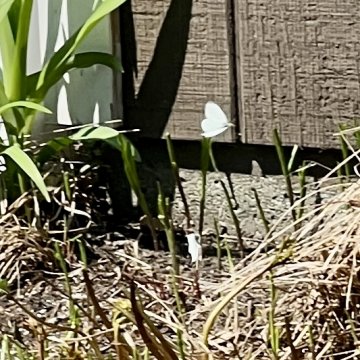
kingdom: Animalia
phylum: Arthropoda
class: Insecta
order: Lepidoptera
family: Pieridae
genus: Pieris
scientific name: Pieris rapae
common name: Cabbage White
